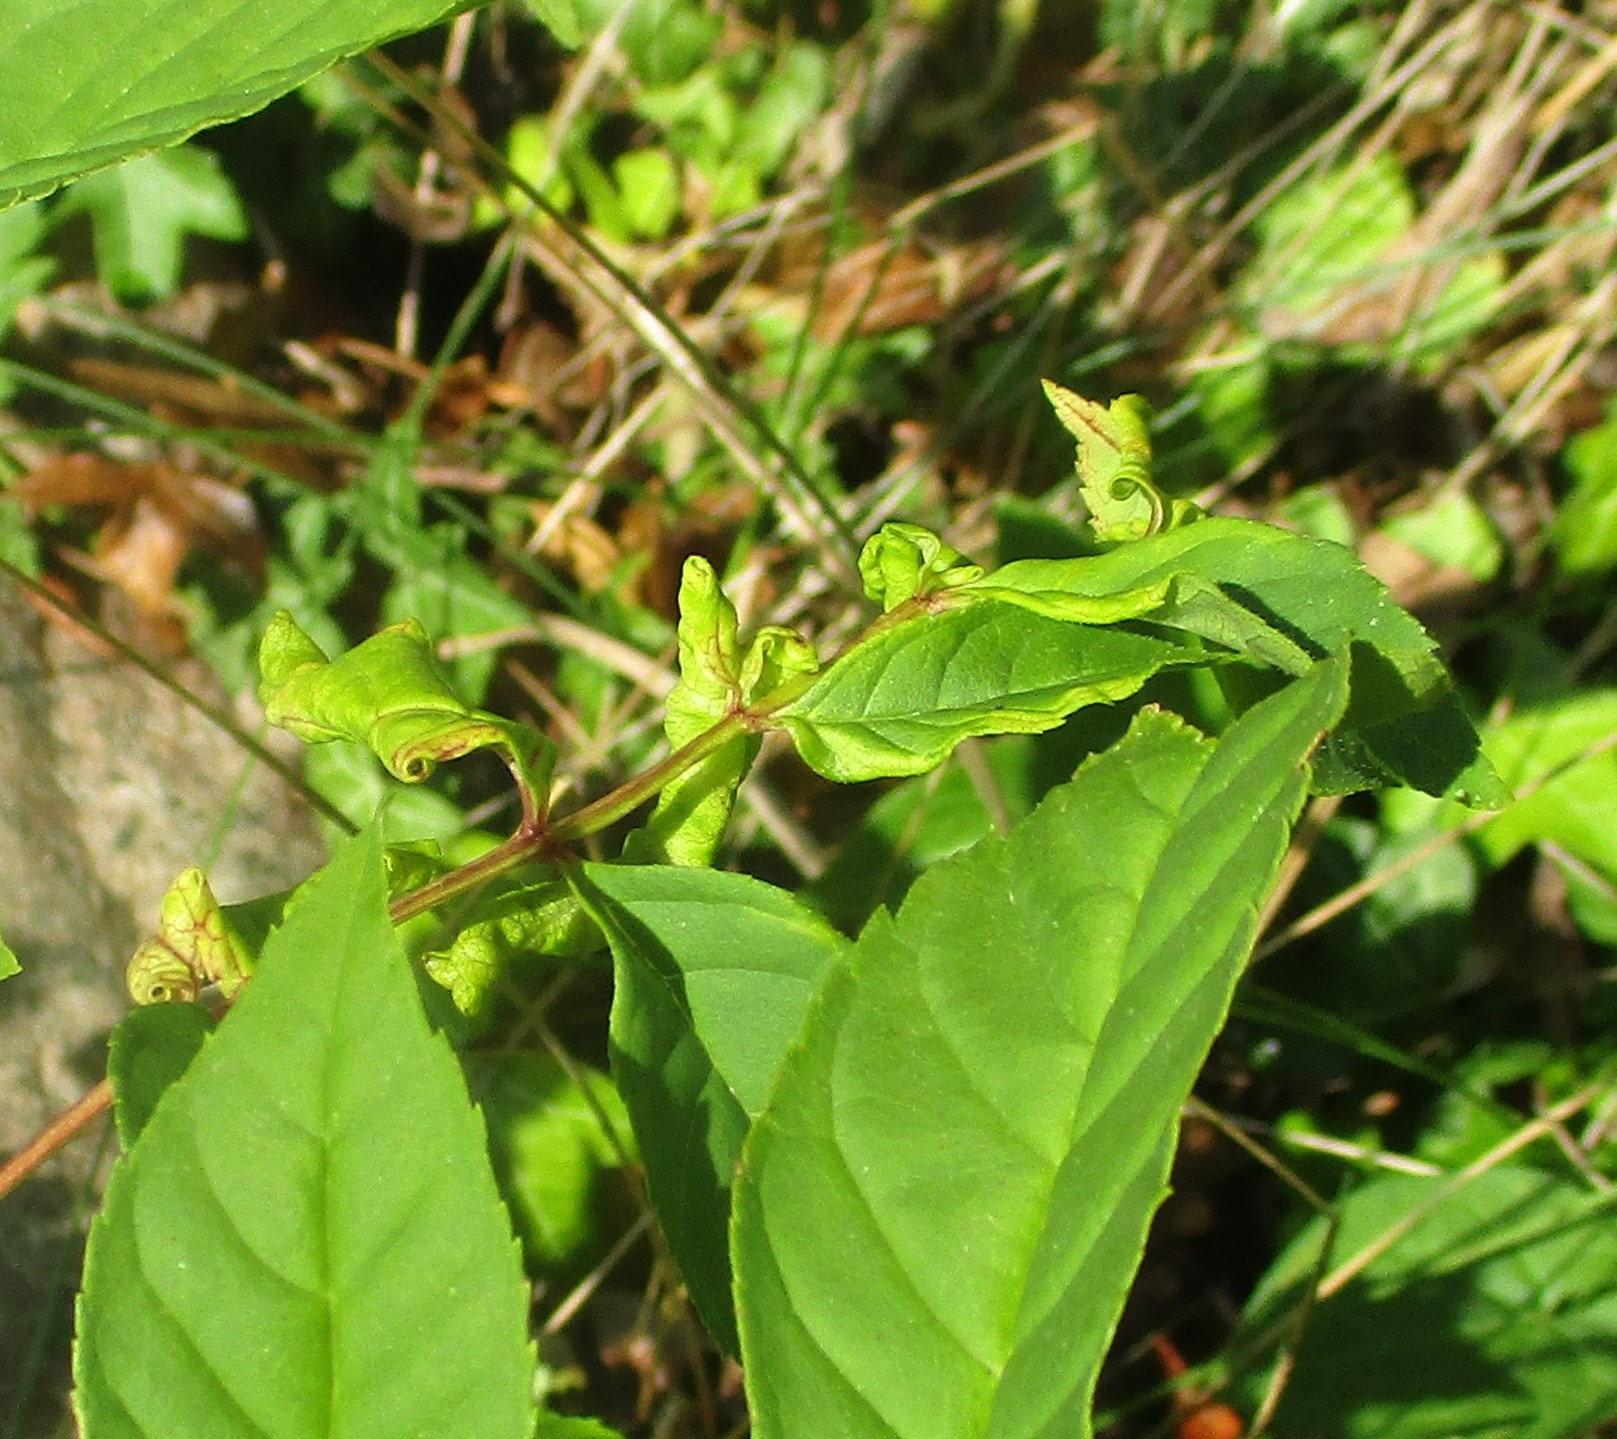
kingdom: Plantae
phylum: Tracheophyta
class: Magnoliopsida
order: Lamiales
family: Oleaceae
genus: Fraxinus
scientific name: Fraxinus excelsior
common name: Ask
